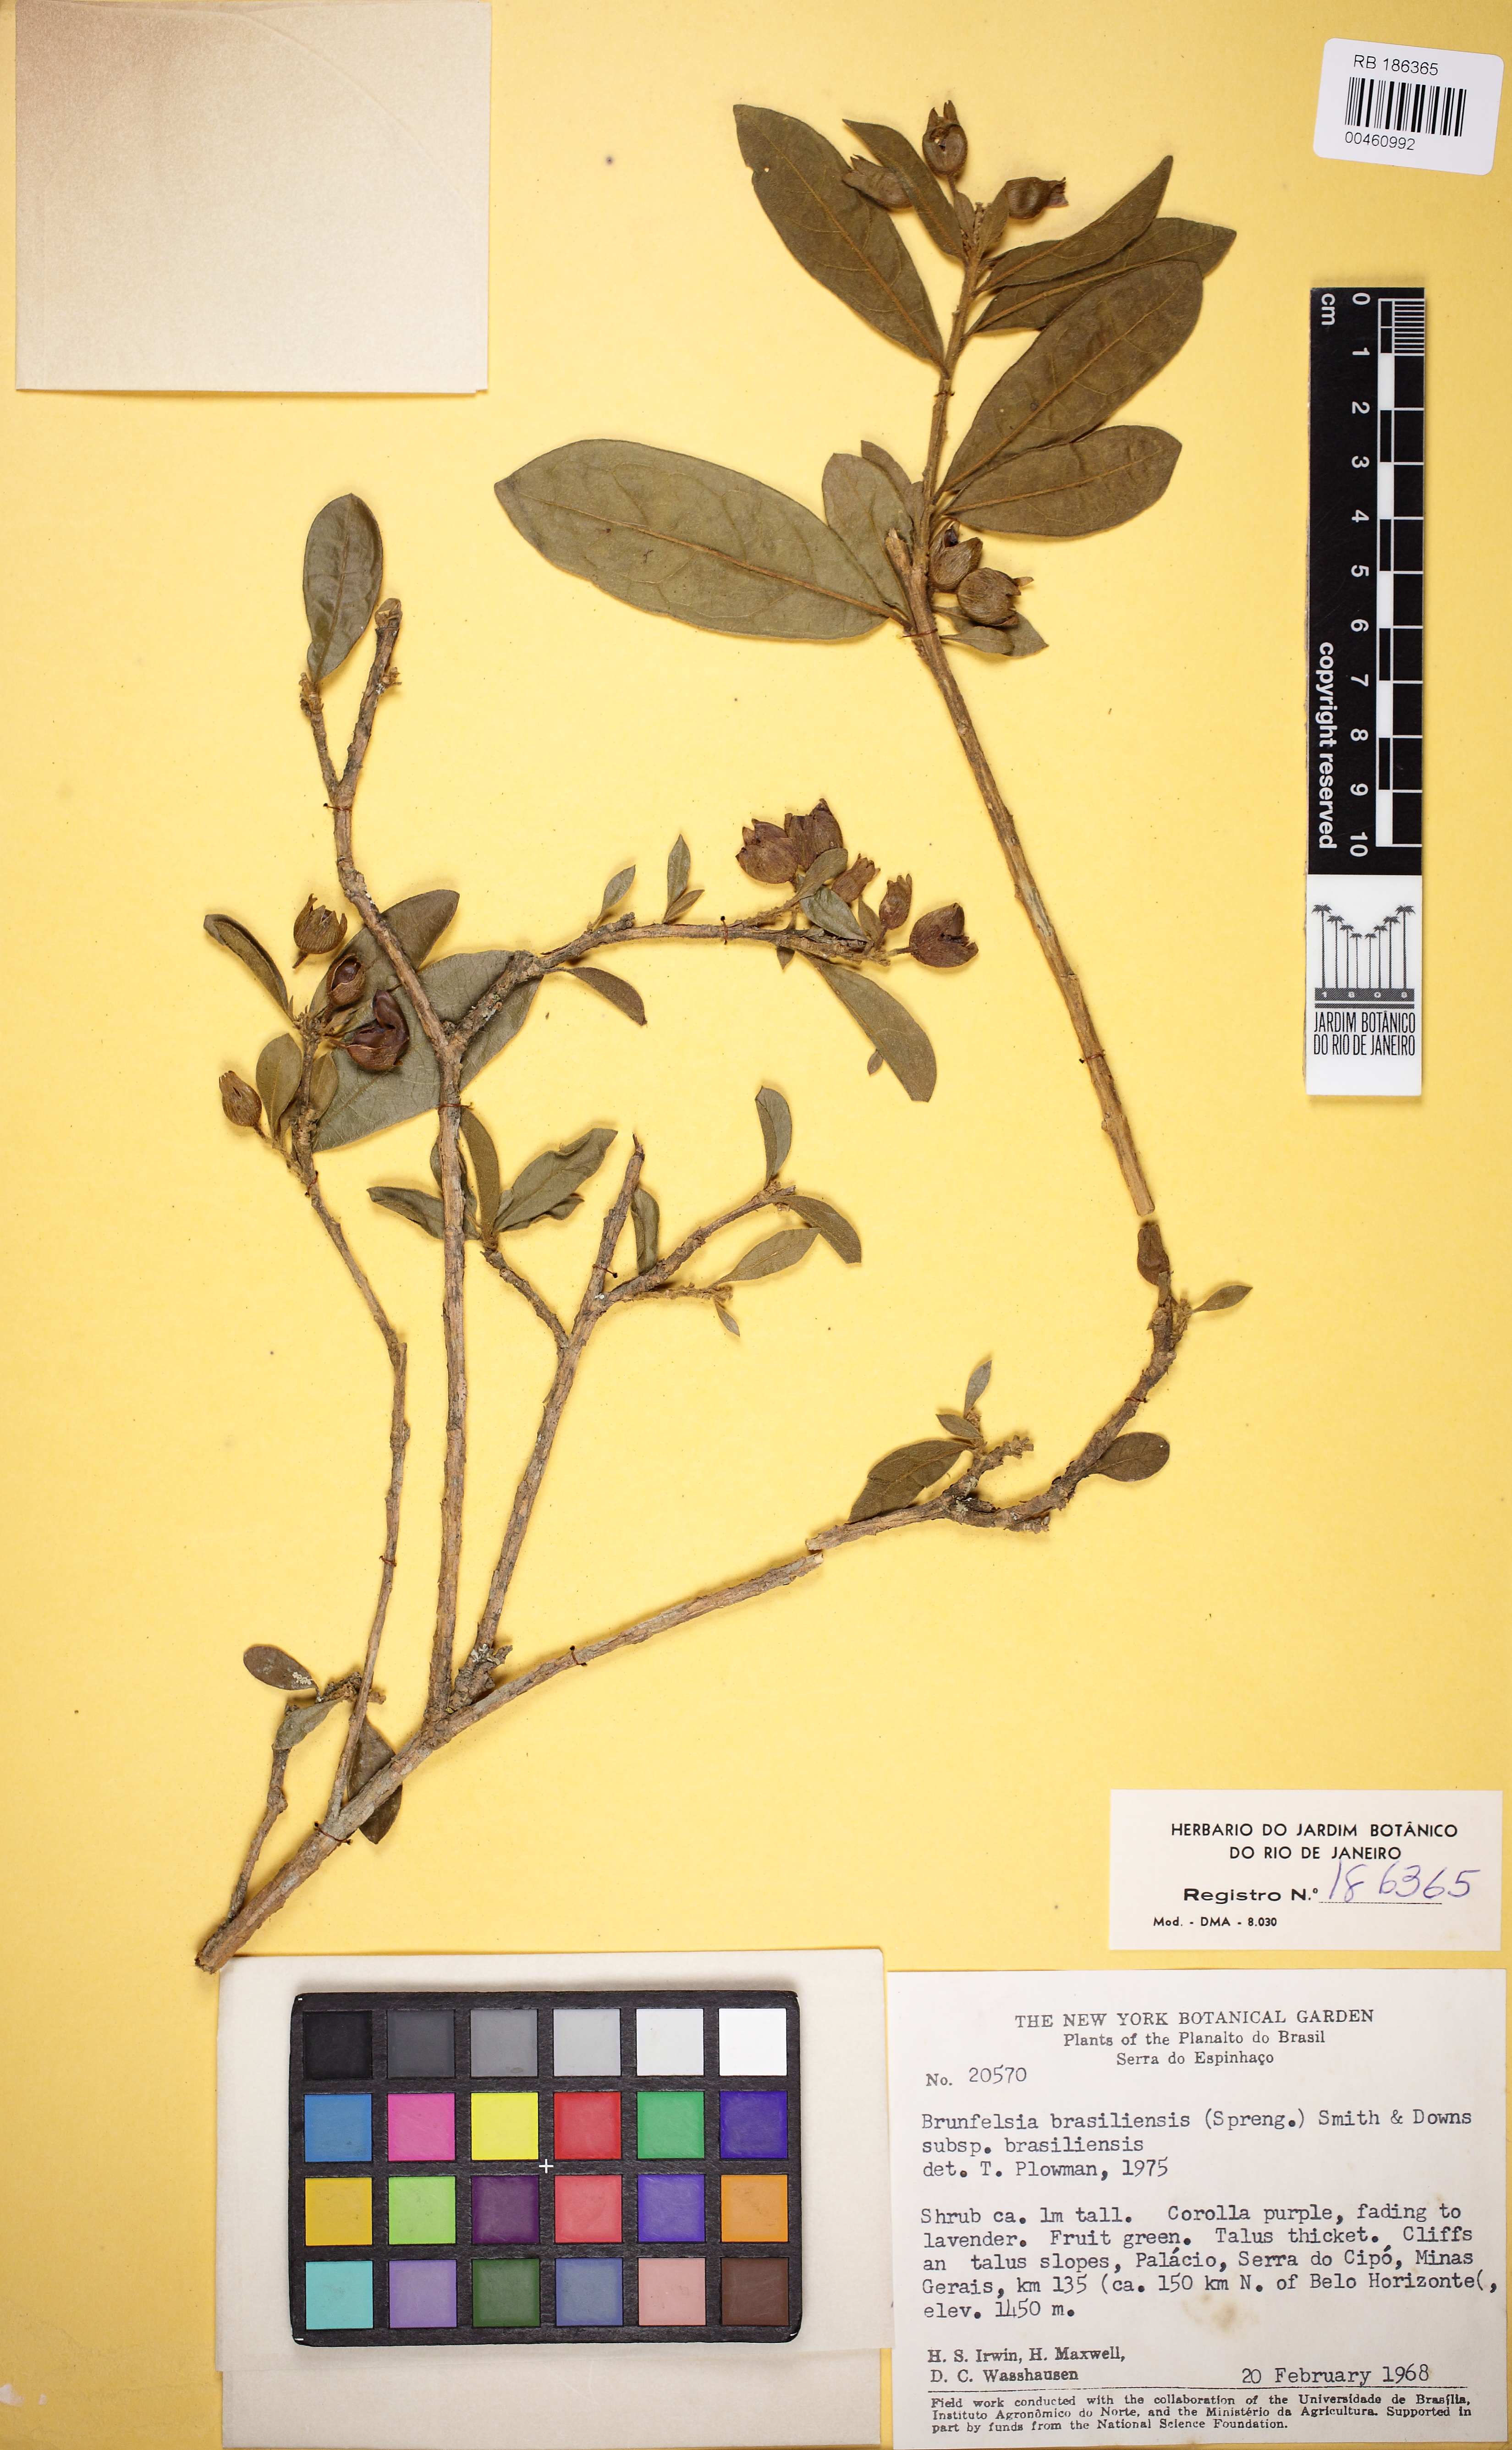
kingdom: Plantae
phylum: Tracheophyta
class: Magnoliopsida
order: Solanales
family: Solanaceae
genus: Brunfelsia
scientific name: Brunfelsia brasiliensis
